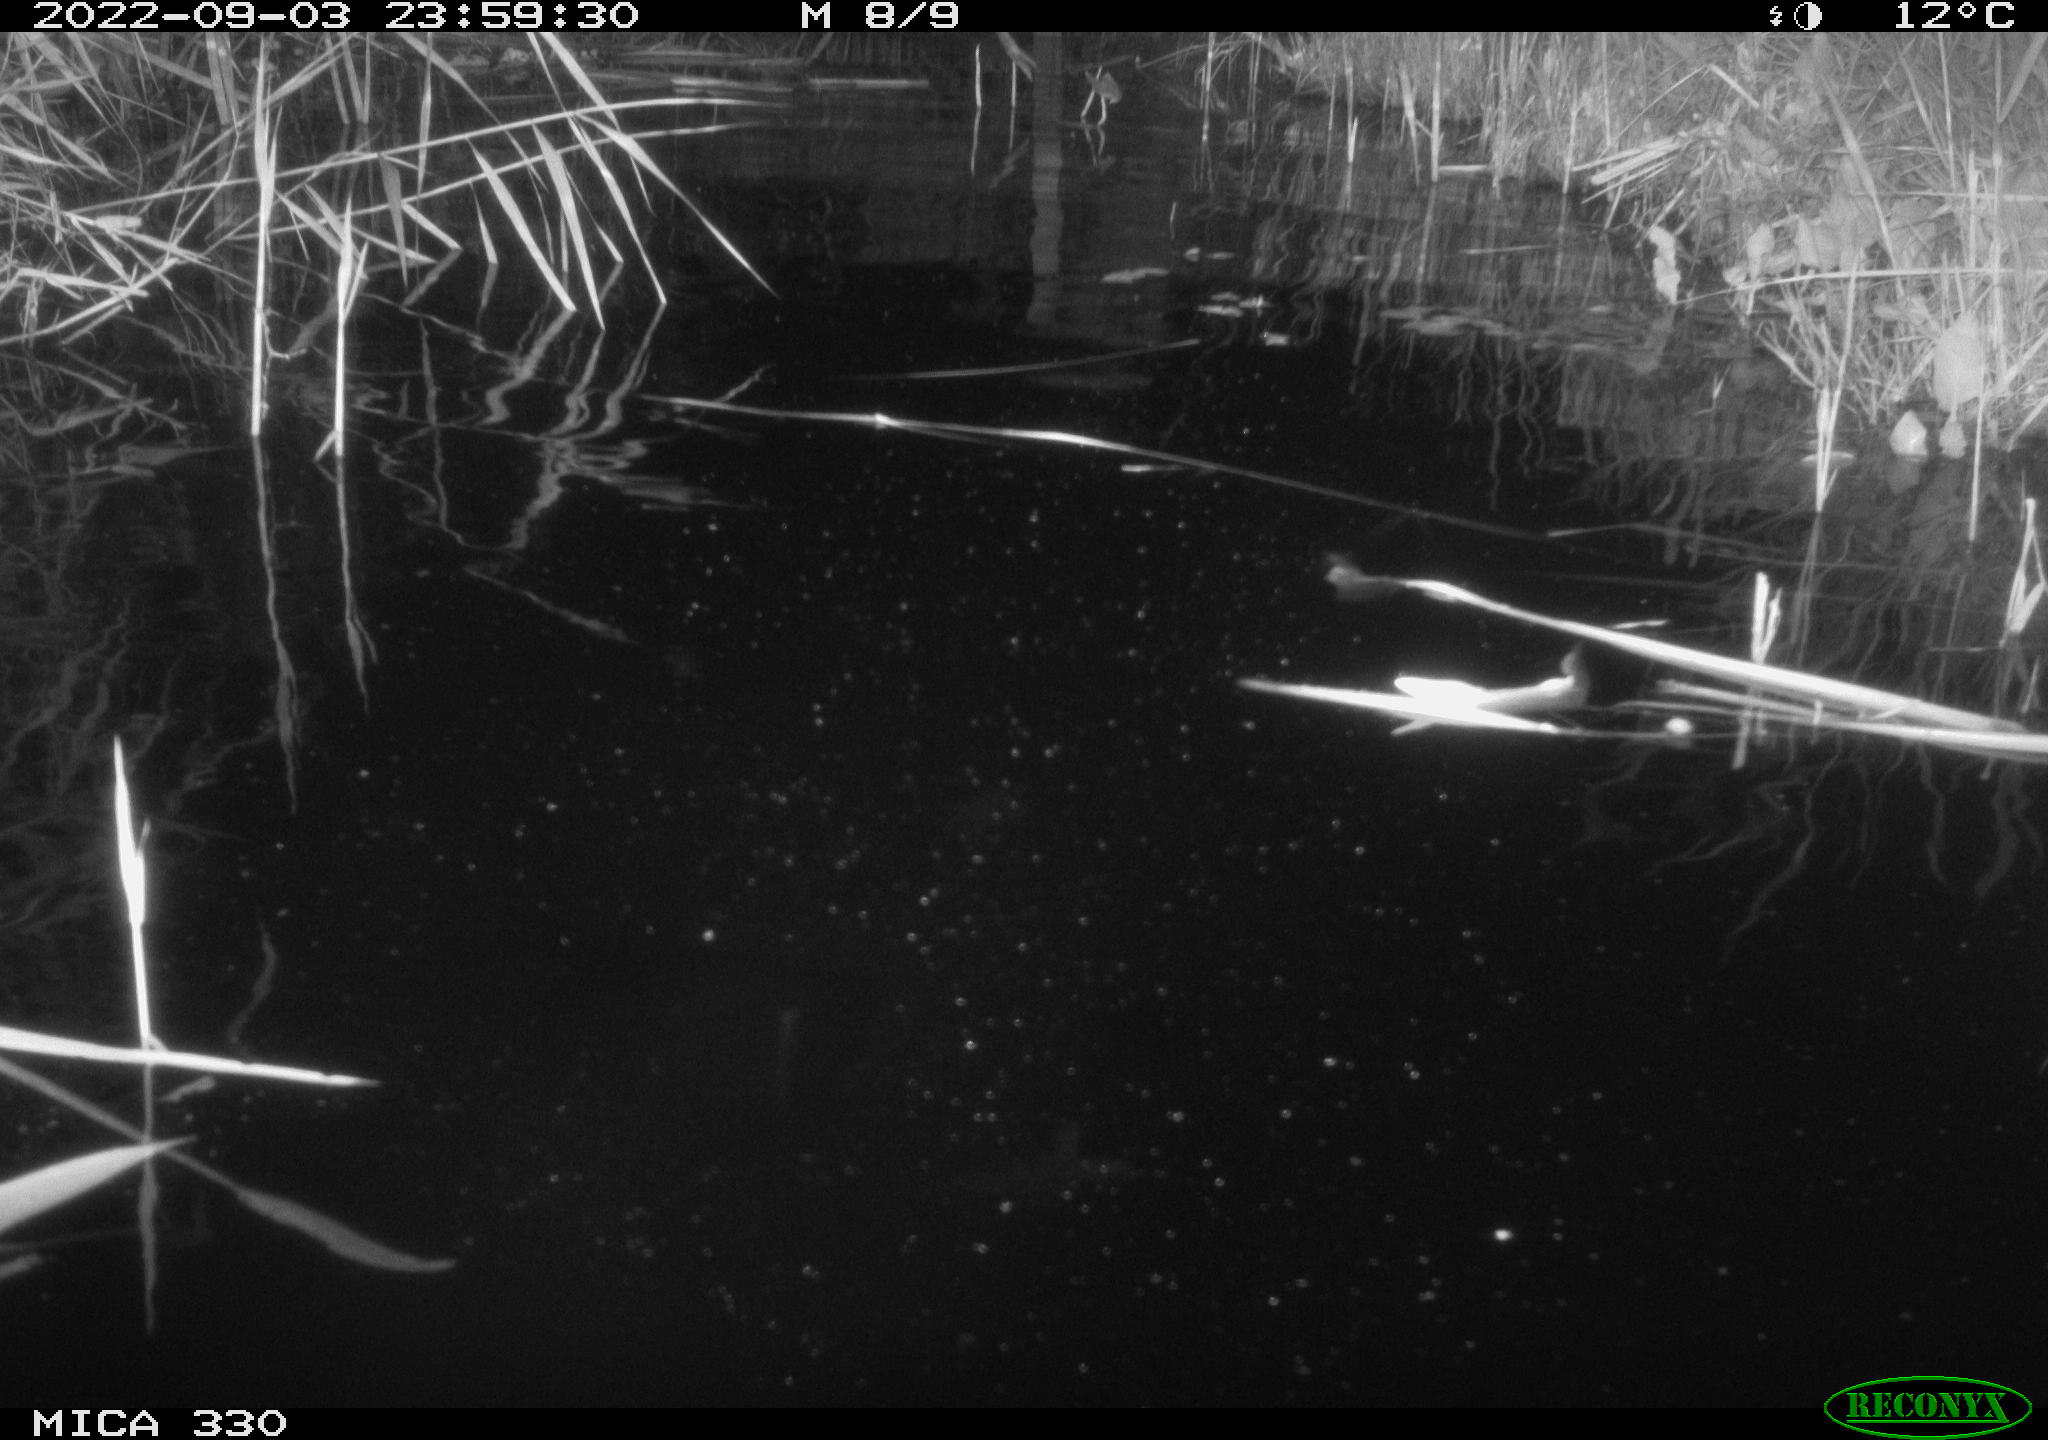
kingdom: Animalia
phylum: Chordata
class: Mammalia
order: Carnivora
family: Mustelidae
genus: Lutra
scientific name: Lutra lutra
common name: European otter
